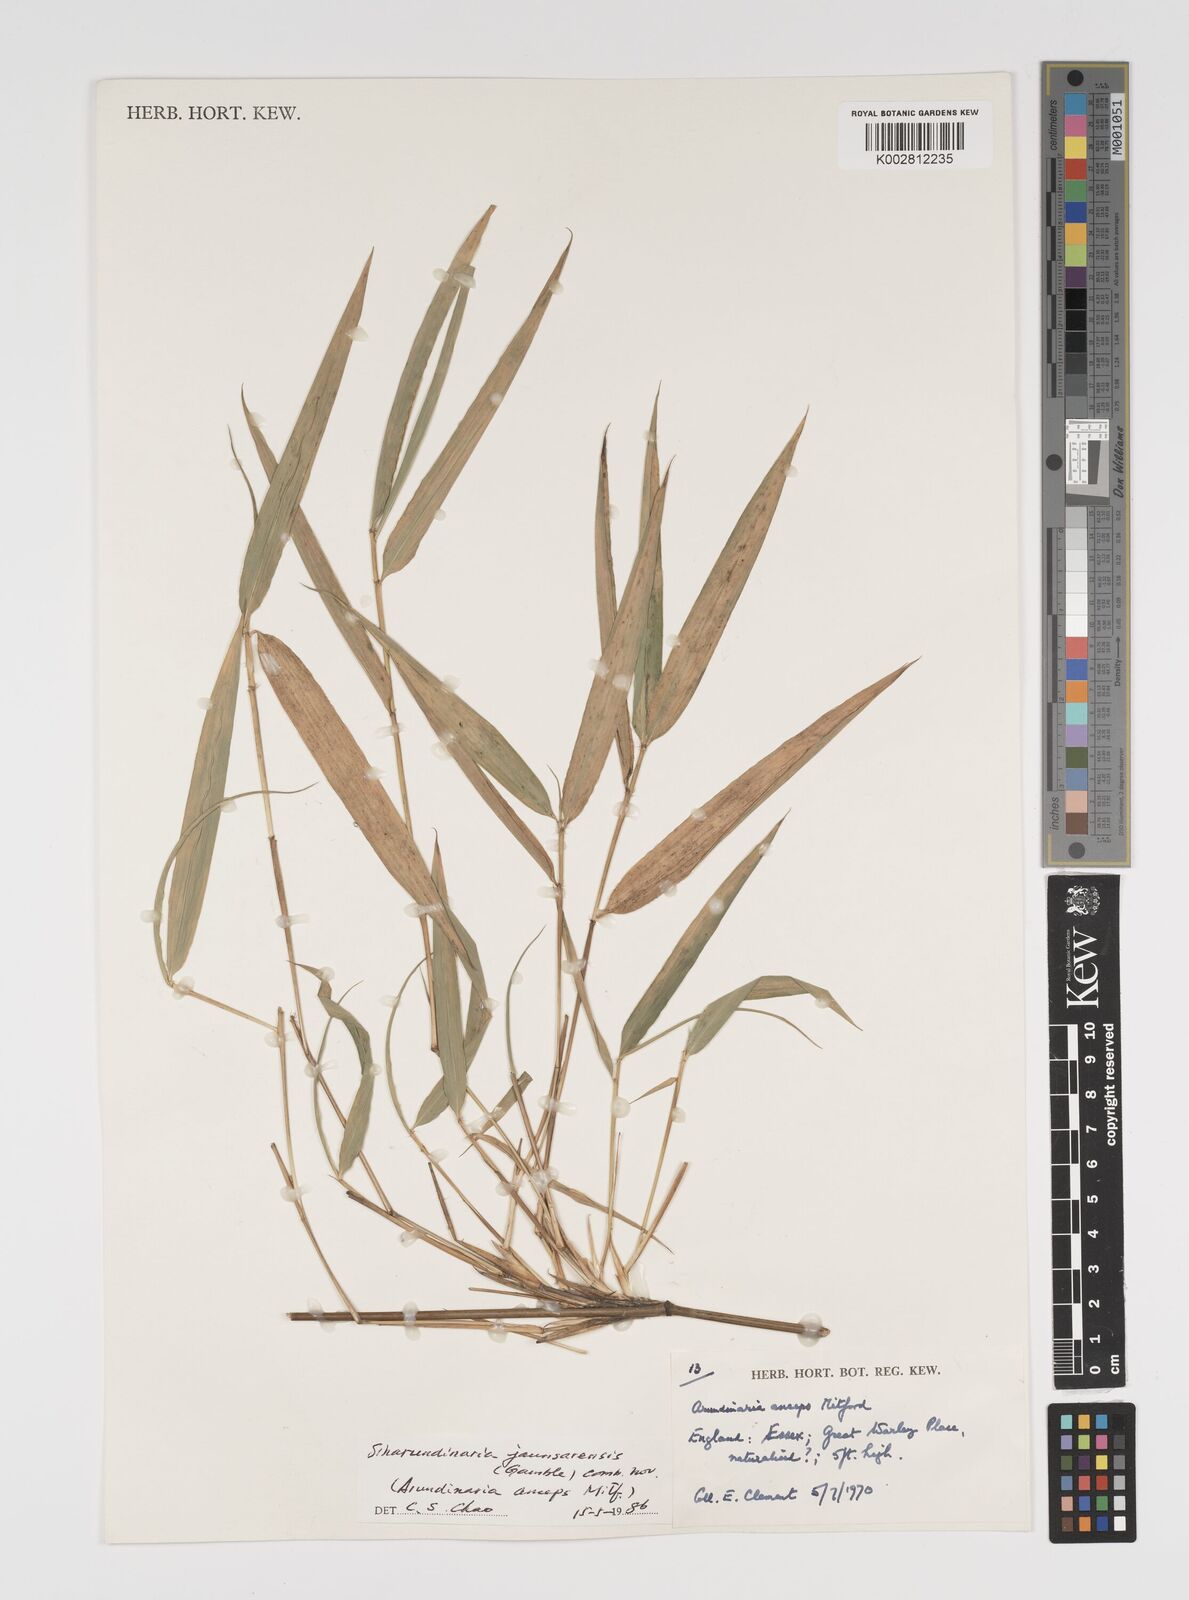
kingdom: Plantae
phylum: Tracheophyta
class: Liliopsida
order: Poales
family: Poaceae
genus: Yushania
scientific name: Yushania anceps
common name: Indian fountain-bamboo
